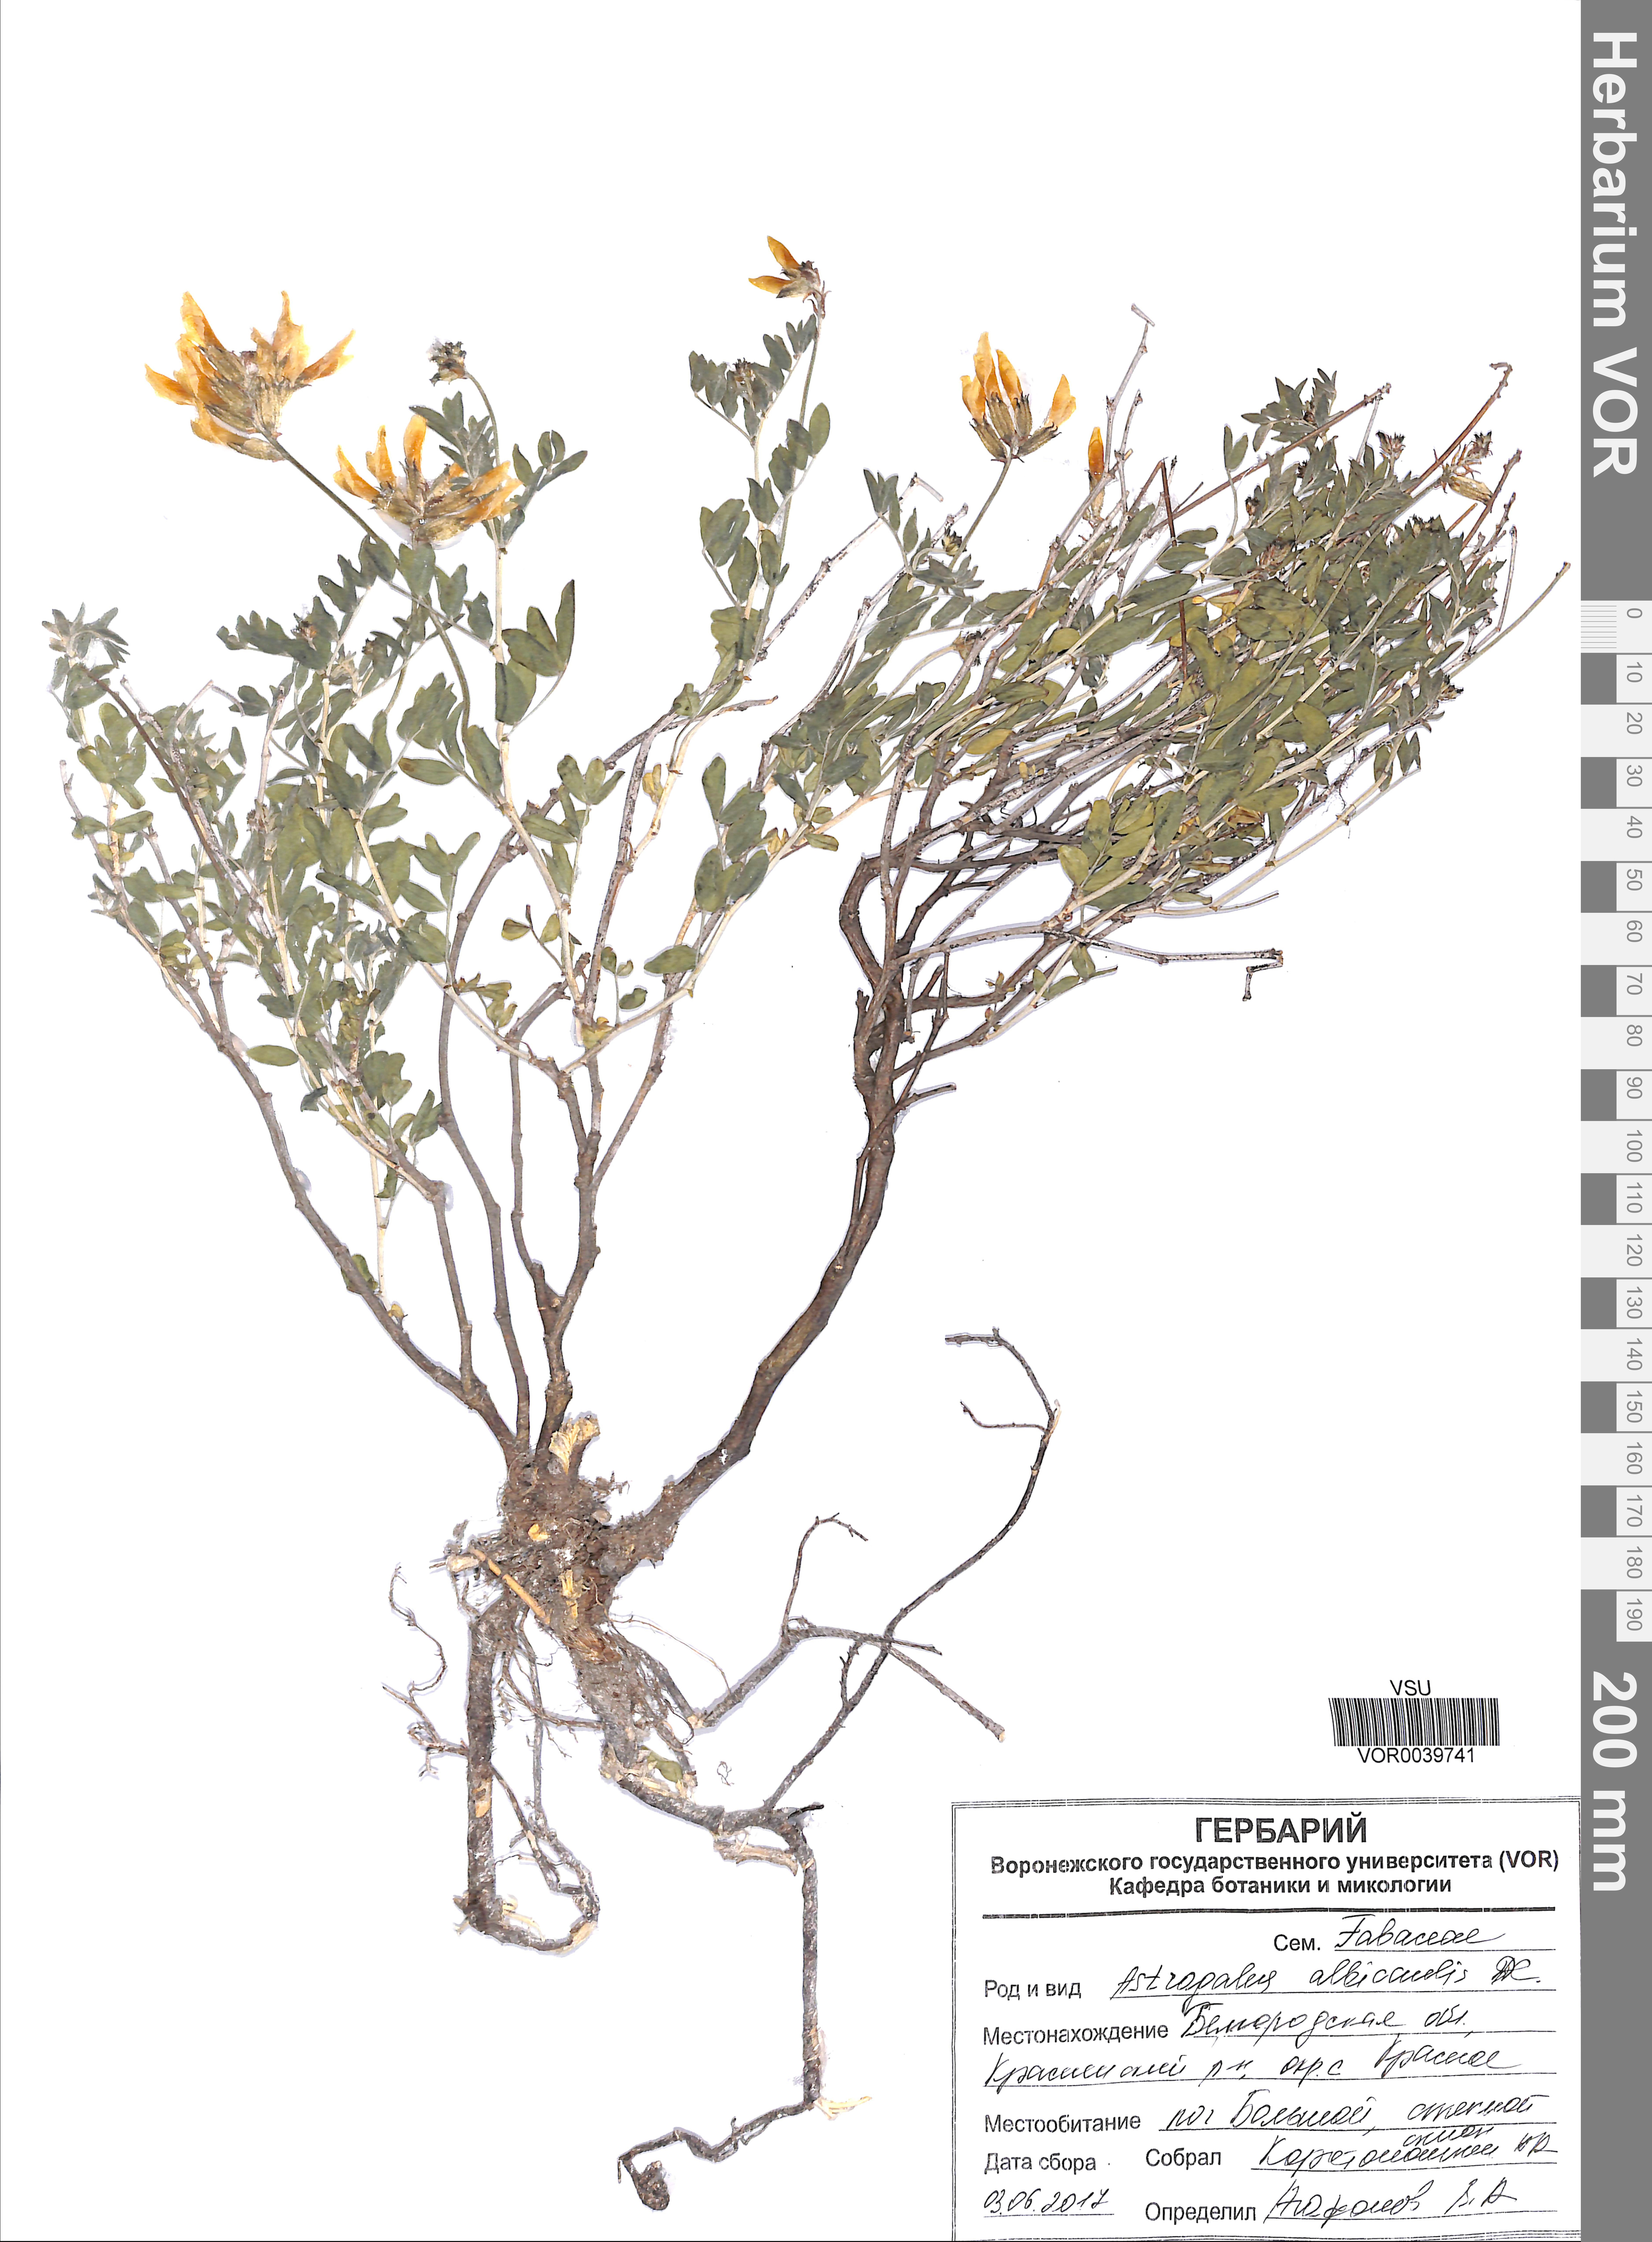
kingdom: Plantae
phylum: Tracheophyta
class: Magnoliopsida
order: Fabales
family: Fabaceae
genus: Astragalus
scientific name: Astragalus albicaulis
